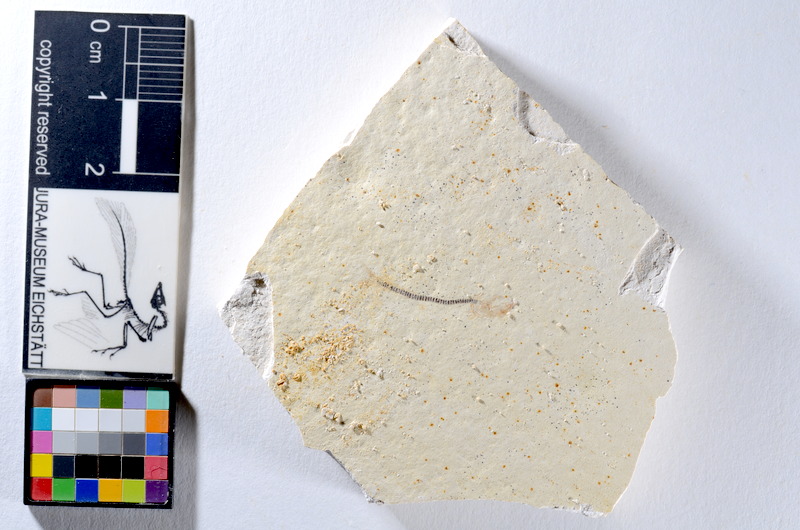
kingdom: Animalia
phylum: Chordata
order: Salmoniformes
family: Orthogonikleithridae
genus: Orthogonikleithrus
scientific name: Orthogonikleithrus hoelli
